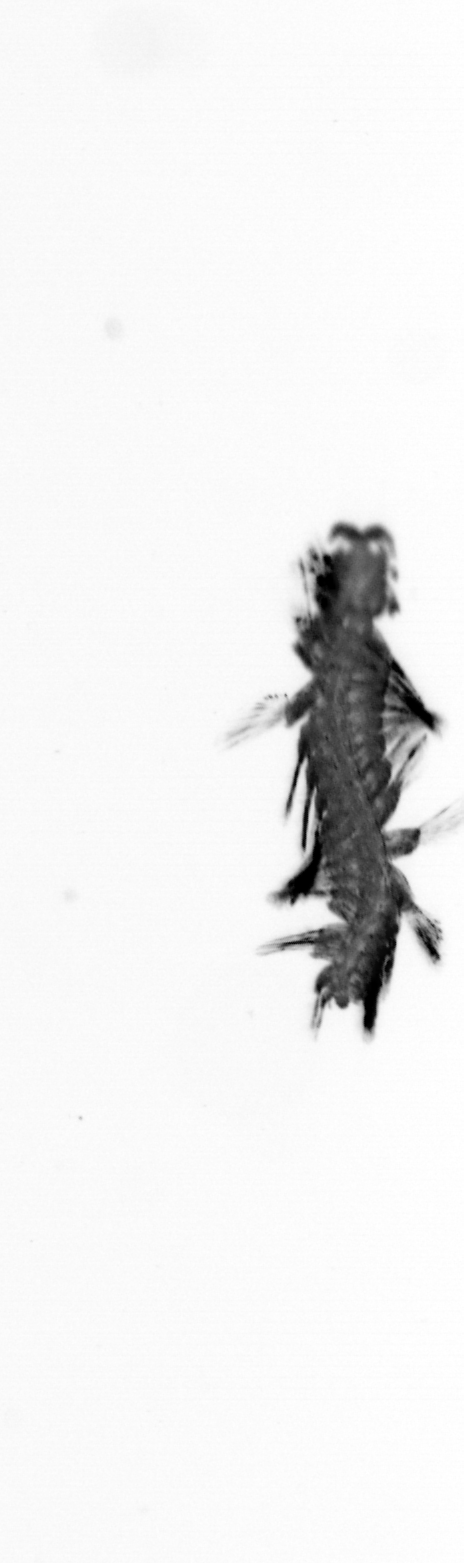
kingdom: Animalia
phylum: Annelida
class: Polychaeta
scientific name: Polychaeta
